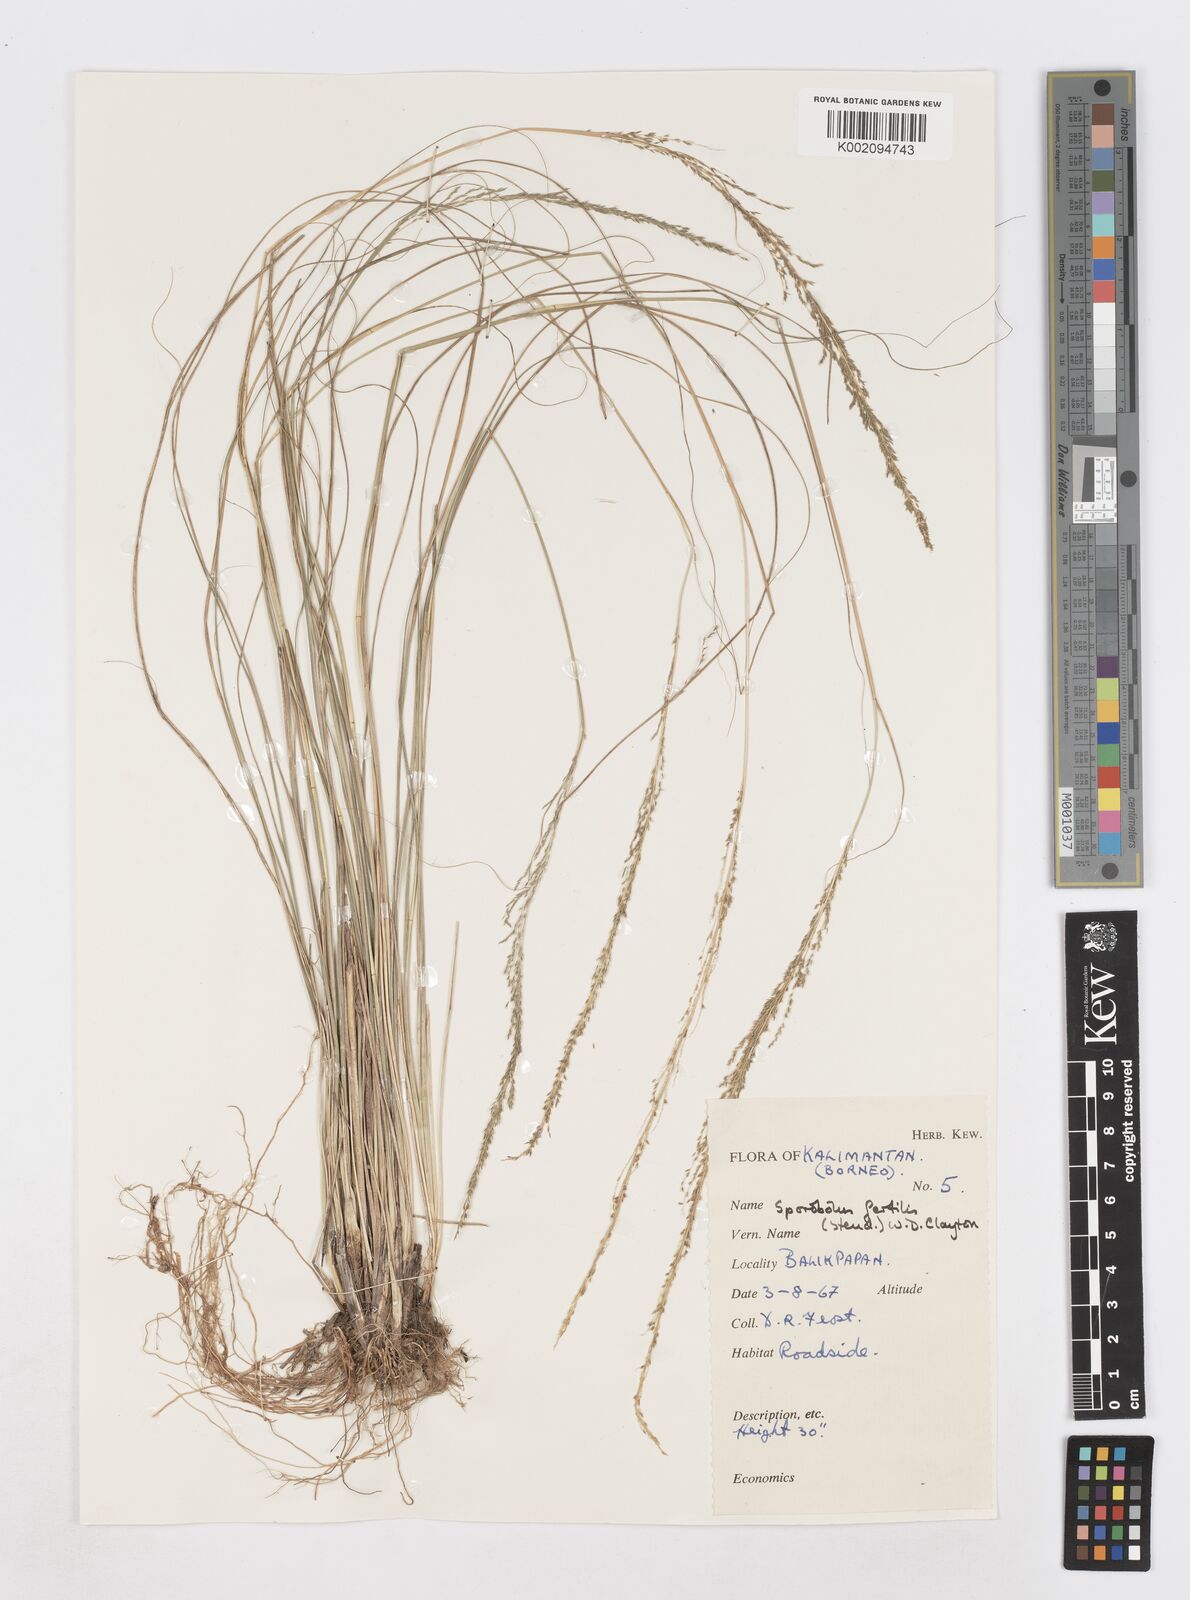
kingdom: Plantae
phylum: Tracheophyta
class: Liliopsida
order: Poales
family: Poaceae
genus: Sporobolus
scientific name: Sporobolus fertilis
